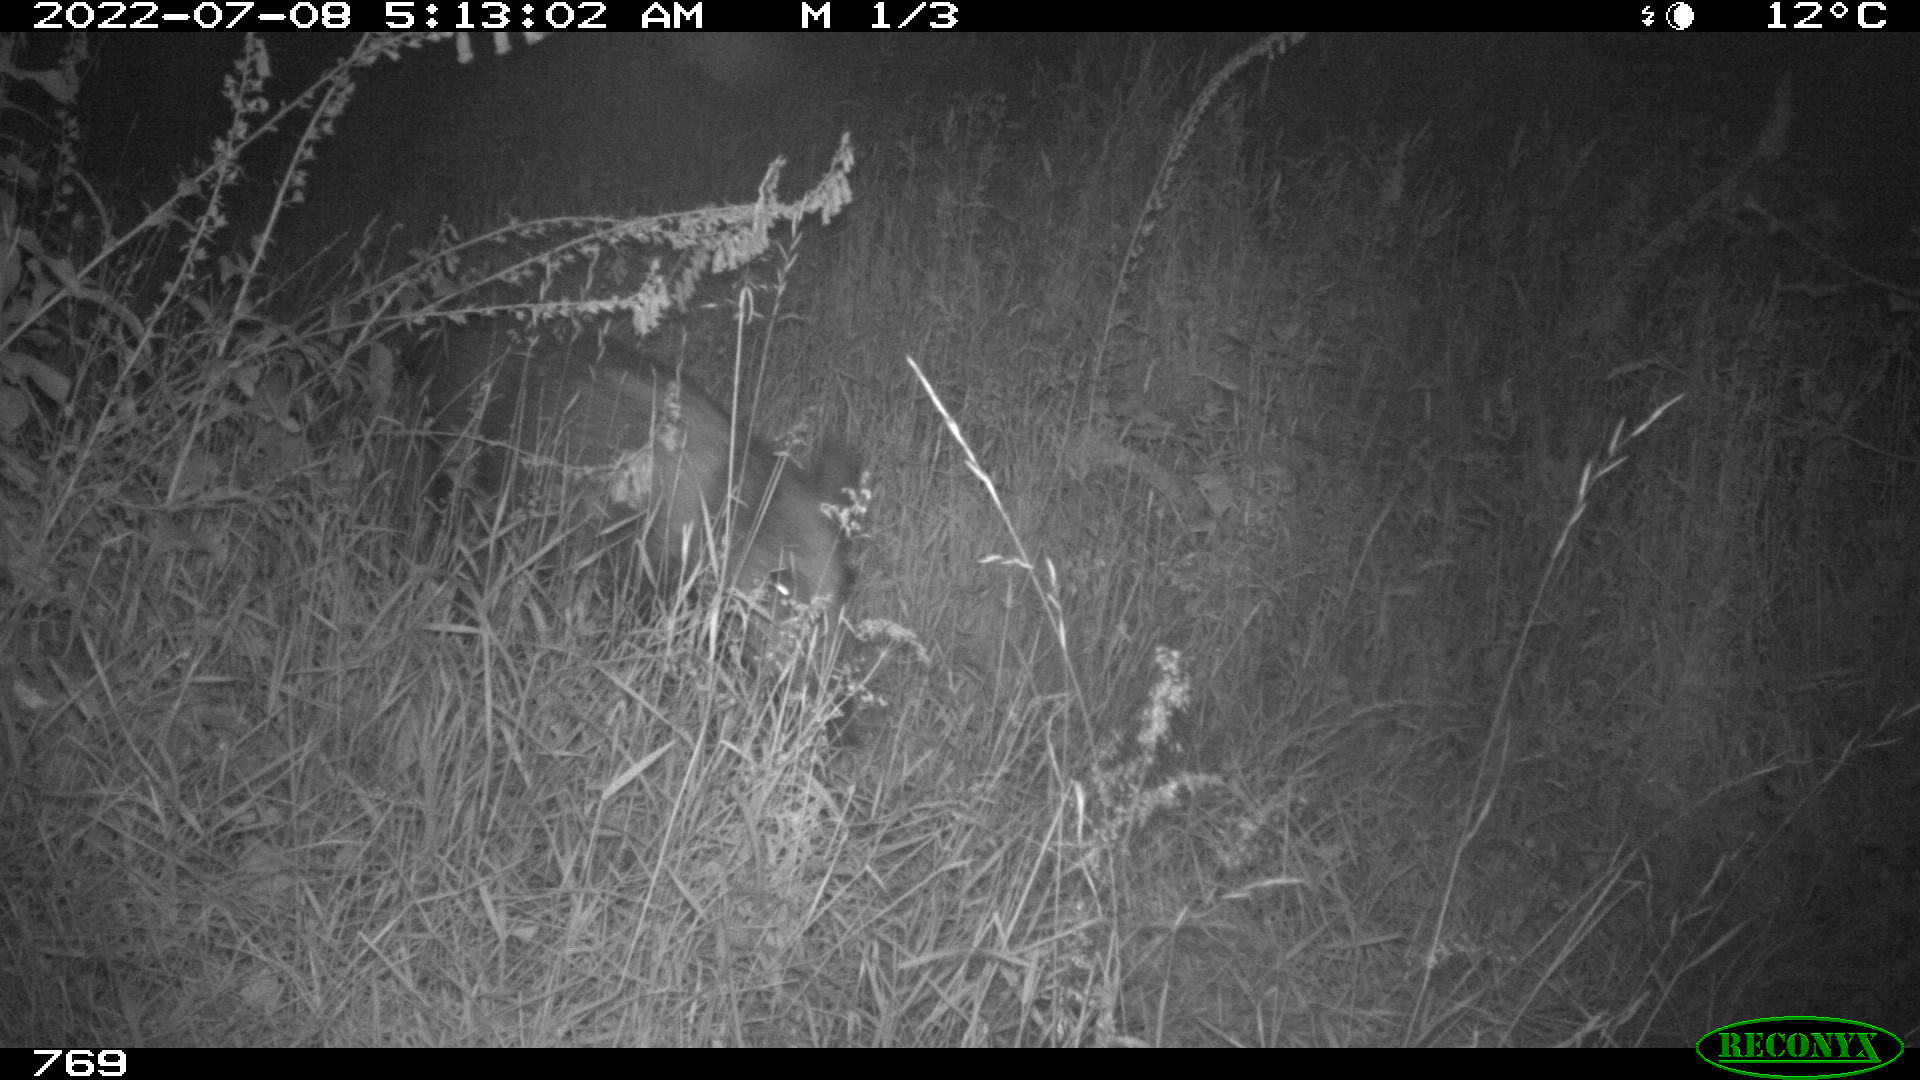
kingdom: Animalia
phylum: Chordata
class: Mammalia
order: Artiodactyla
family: Suidae
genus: Sus
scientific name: Sus scrofa
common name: Wild boar
